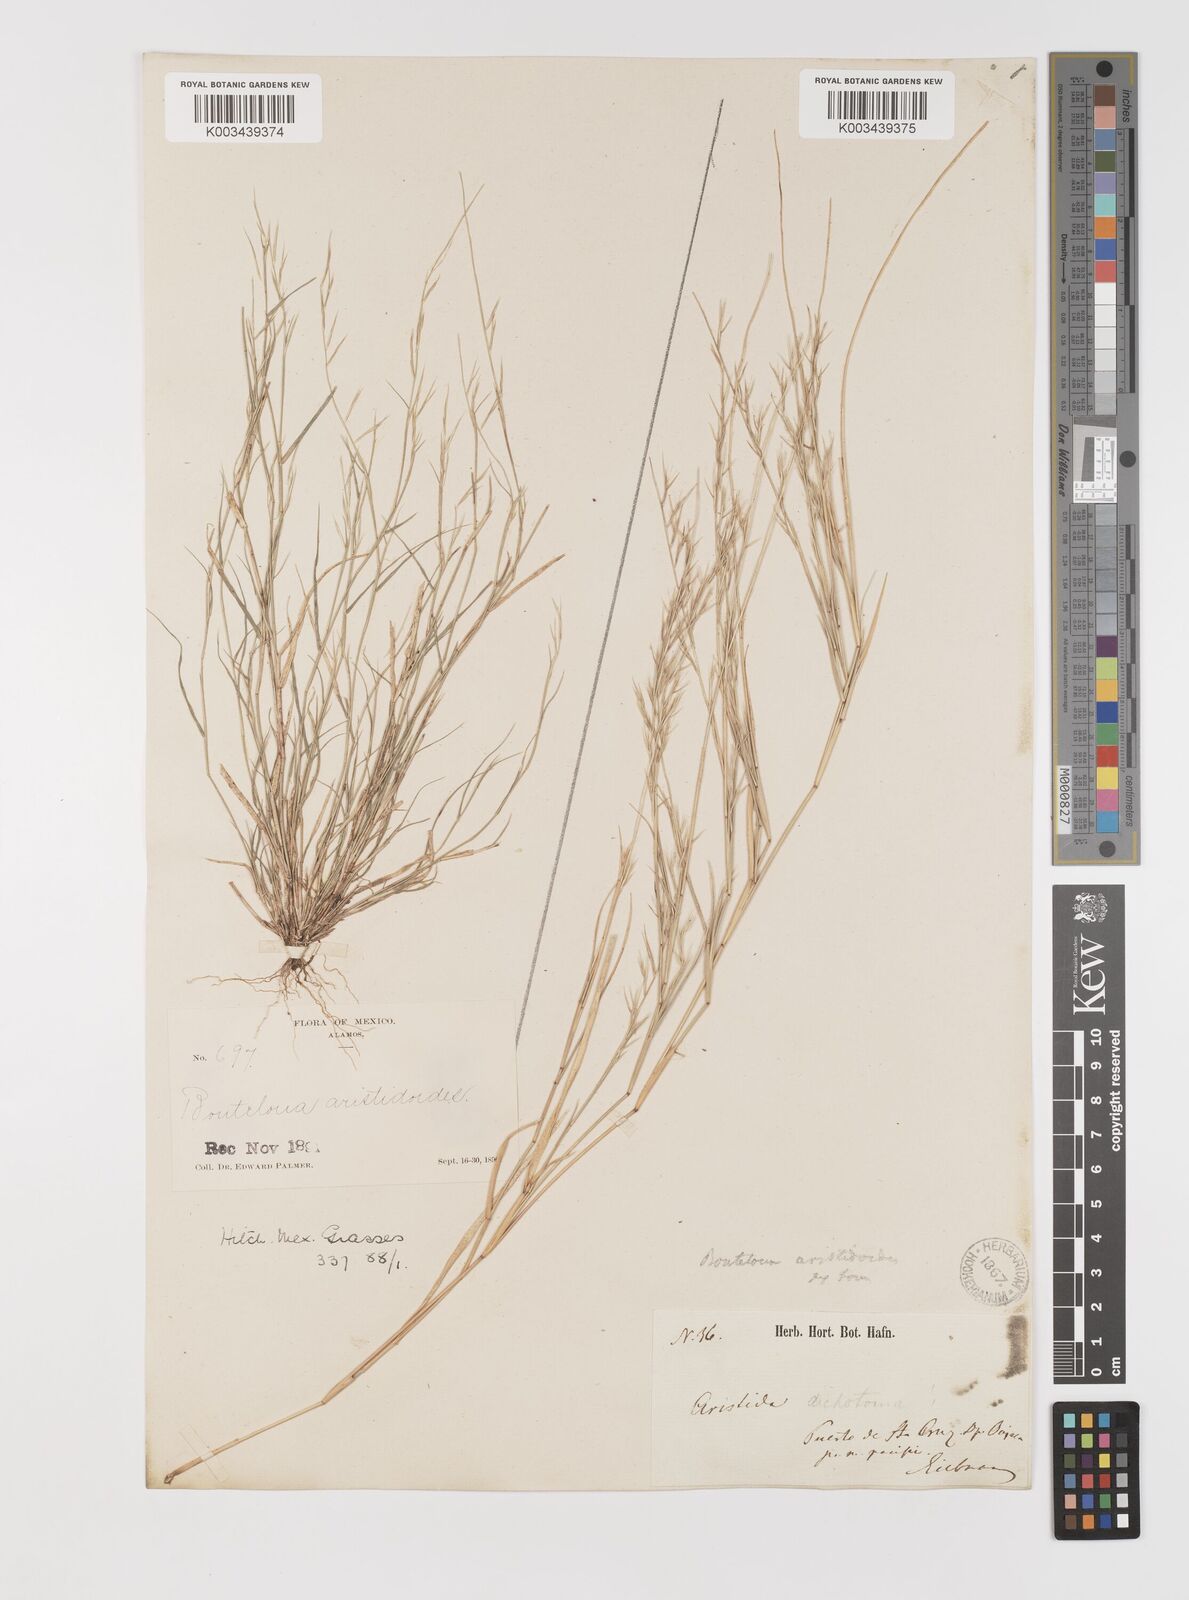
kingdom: Plantae
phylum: Tracheophyta
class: Liliopsida
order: Poales
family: Poaceae
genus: Bouteloua
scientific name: Bouteloua aristidoides
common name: Needle grama
